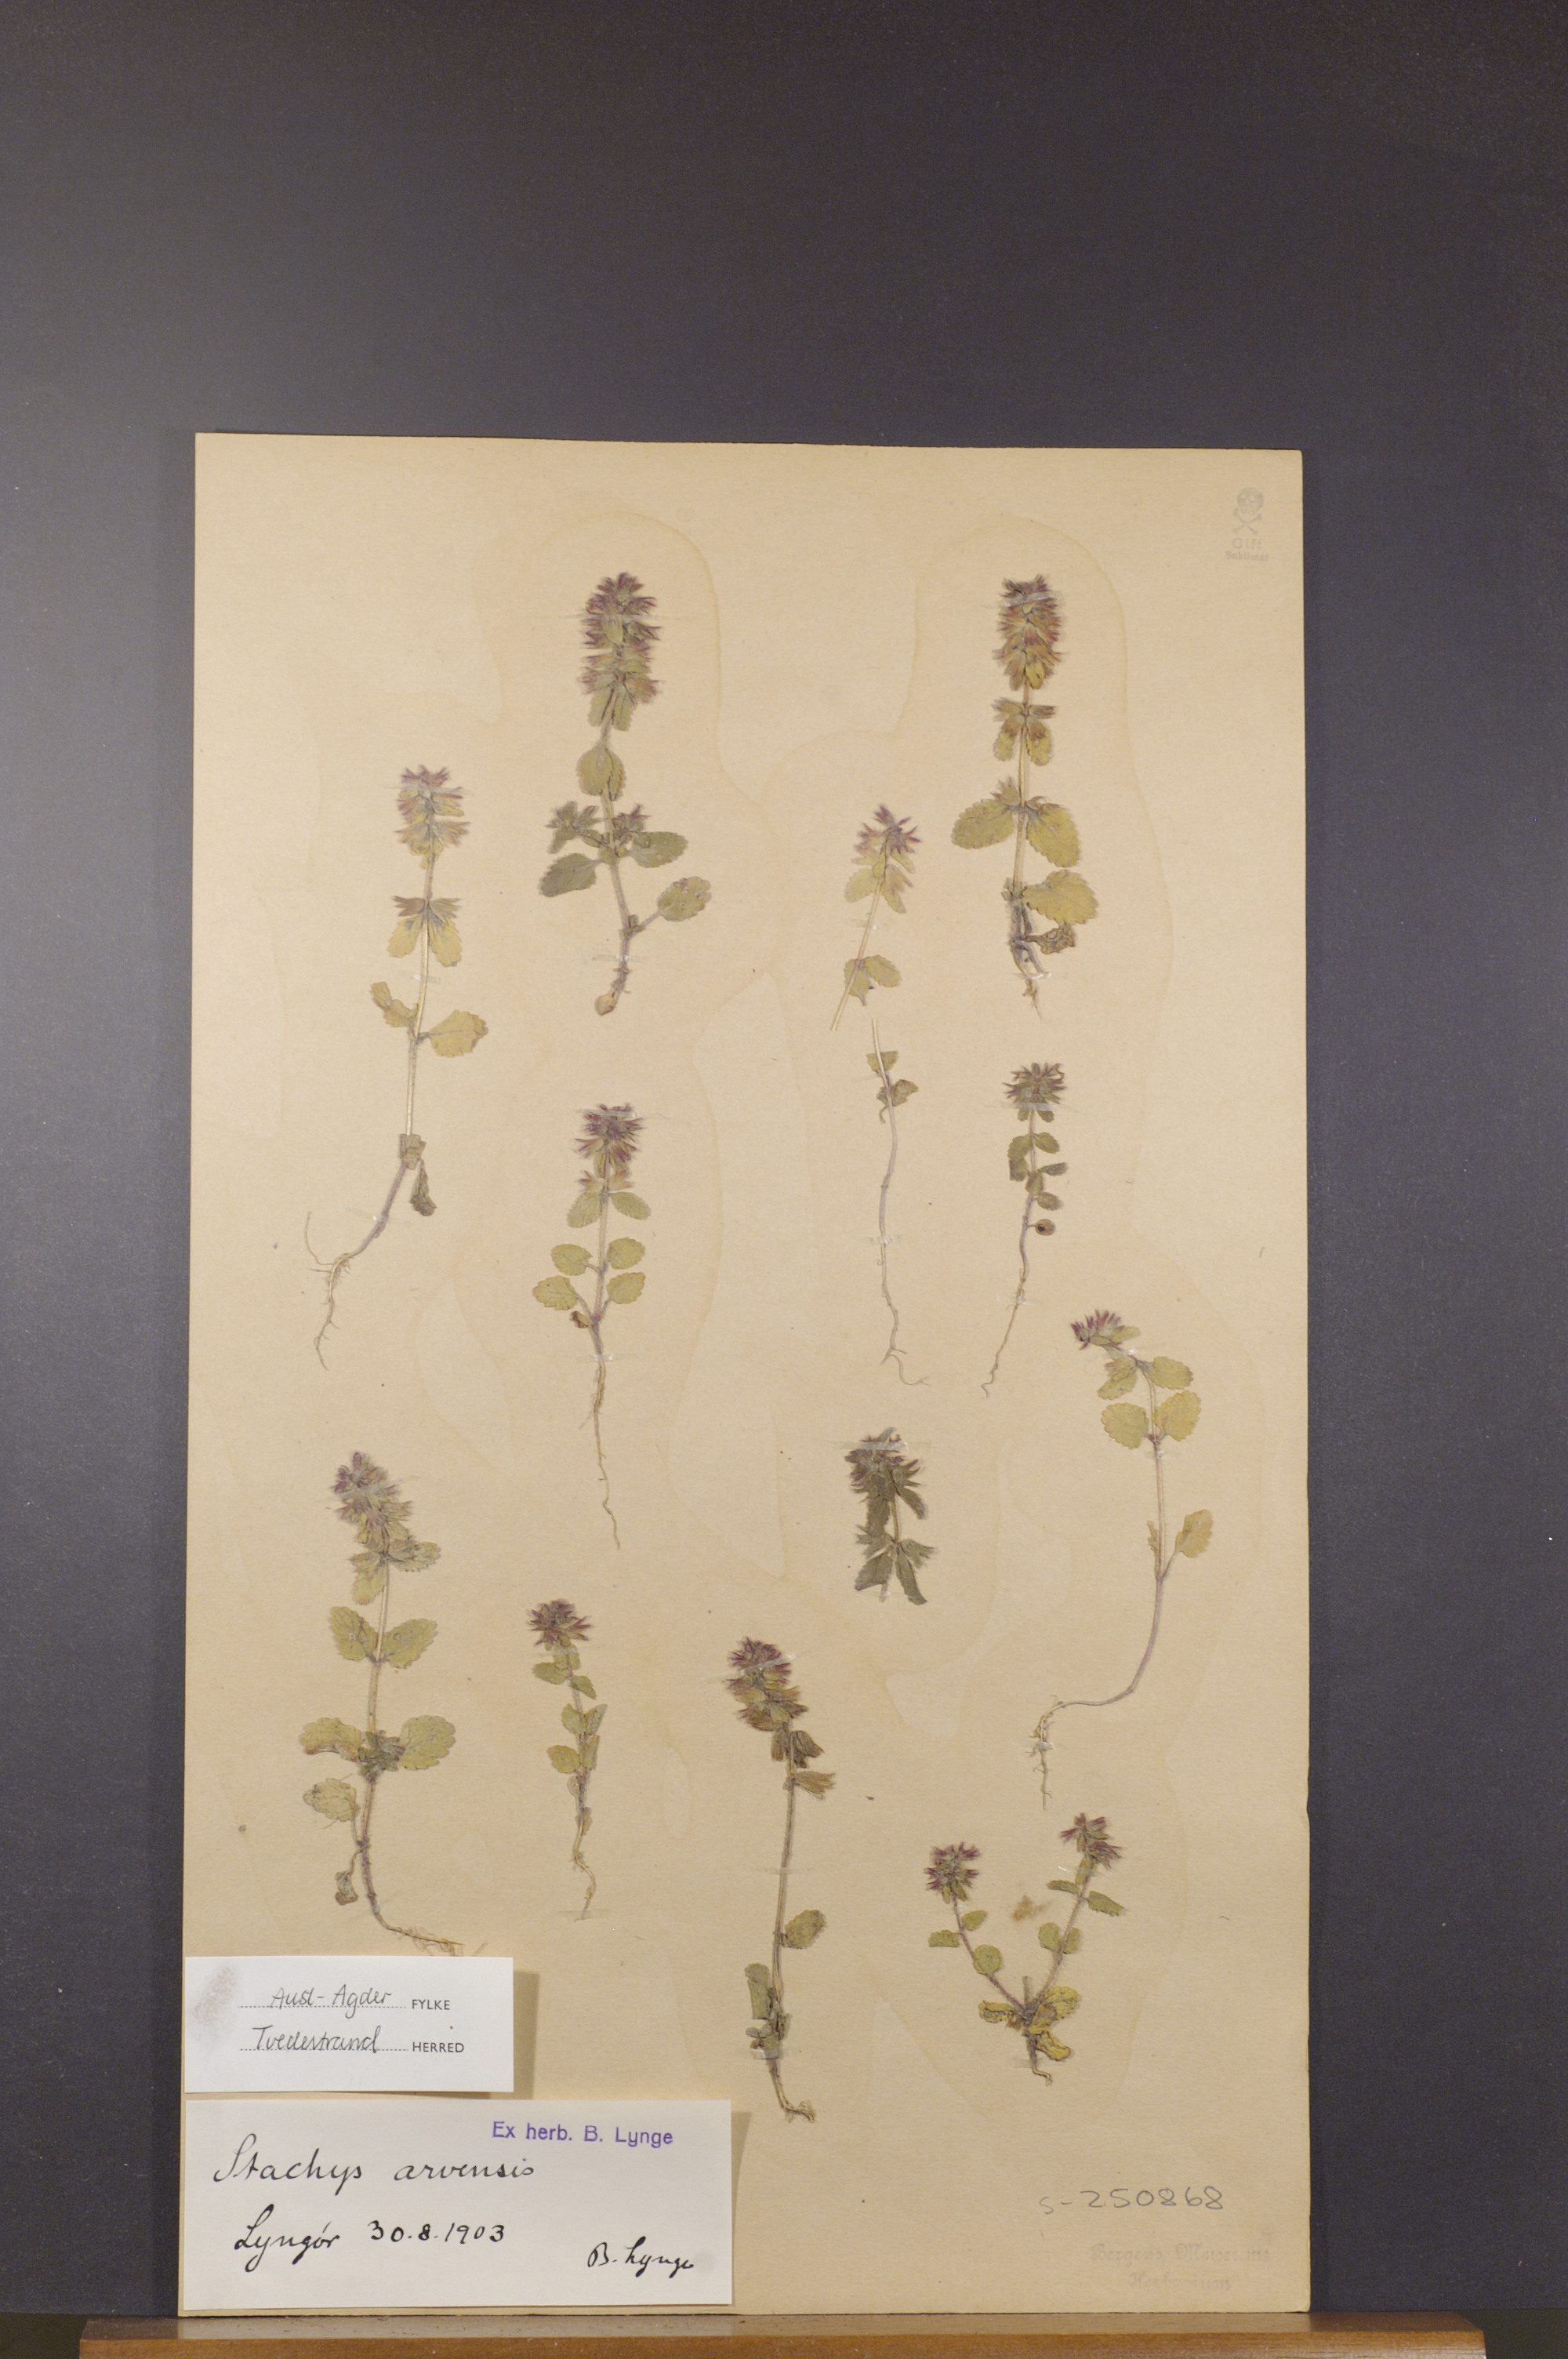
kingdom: Plantae
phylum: Tracheophyta
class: Magnoliopsida
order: Lamiales
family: Lamiaceae
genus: Stachys
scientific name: Stachys arvensis
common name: Field woundwort
